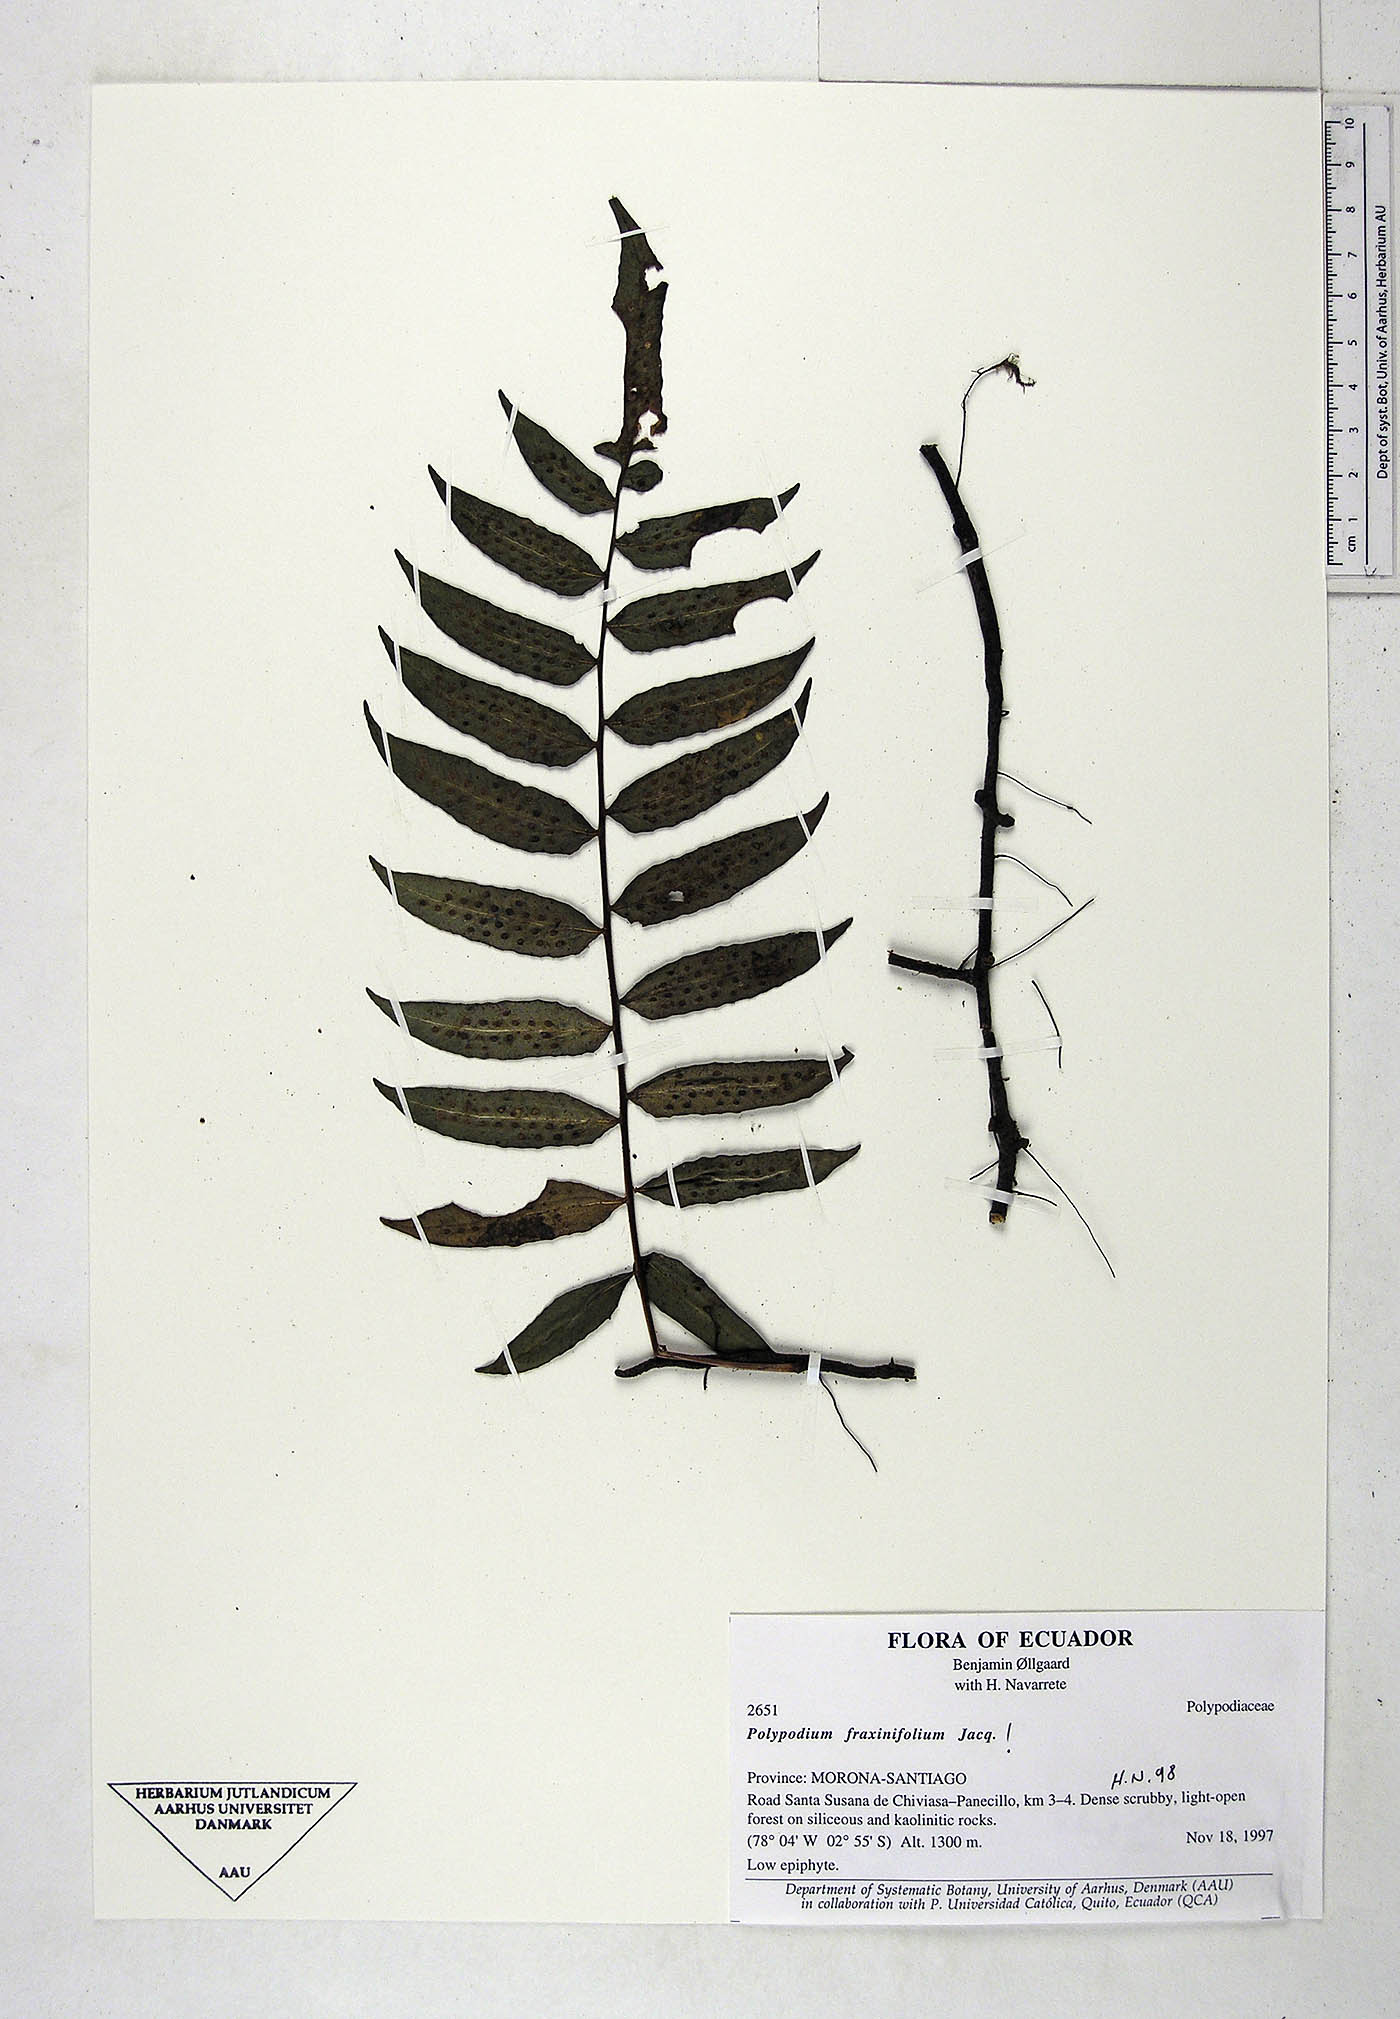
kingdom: Plantae
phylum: Tracheophyta
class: Polypodiopsida
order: Polypodiales
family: Polypodiaceae
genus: Serpocaulon
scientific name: Serpocaulon fraxinifolium
